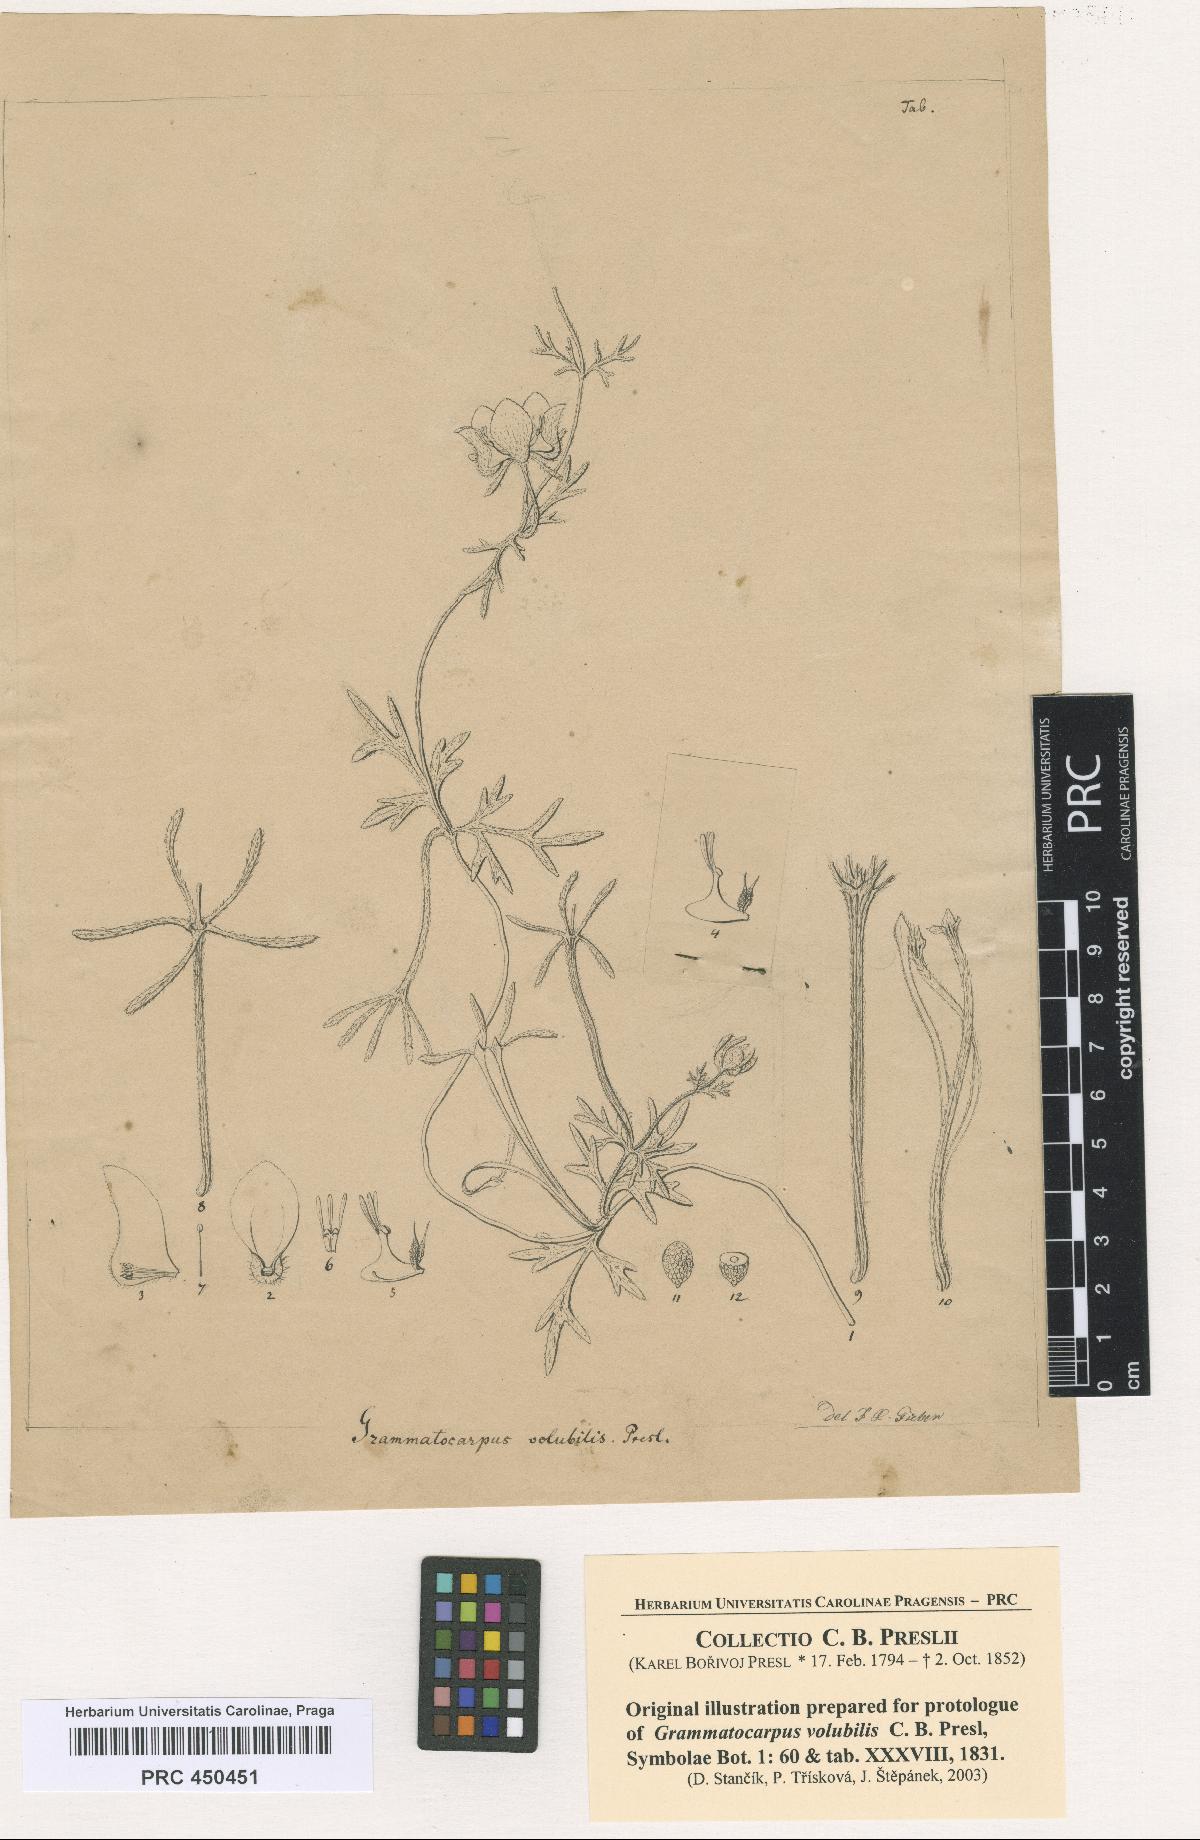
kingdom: Plantae
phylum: Tracheophyta
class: Magnoliopsida
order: Cornales
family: Loasaceae
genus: Scyphanthus
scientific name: Scyphanthus elegans
